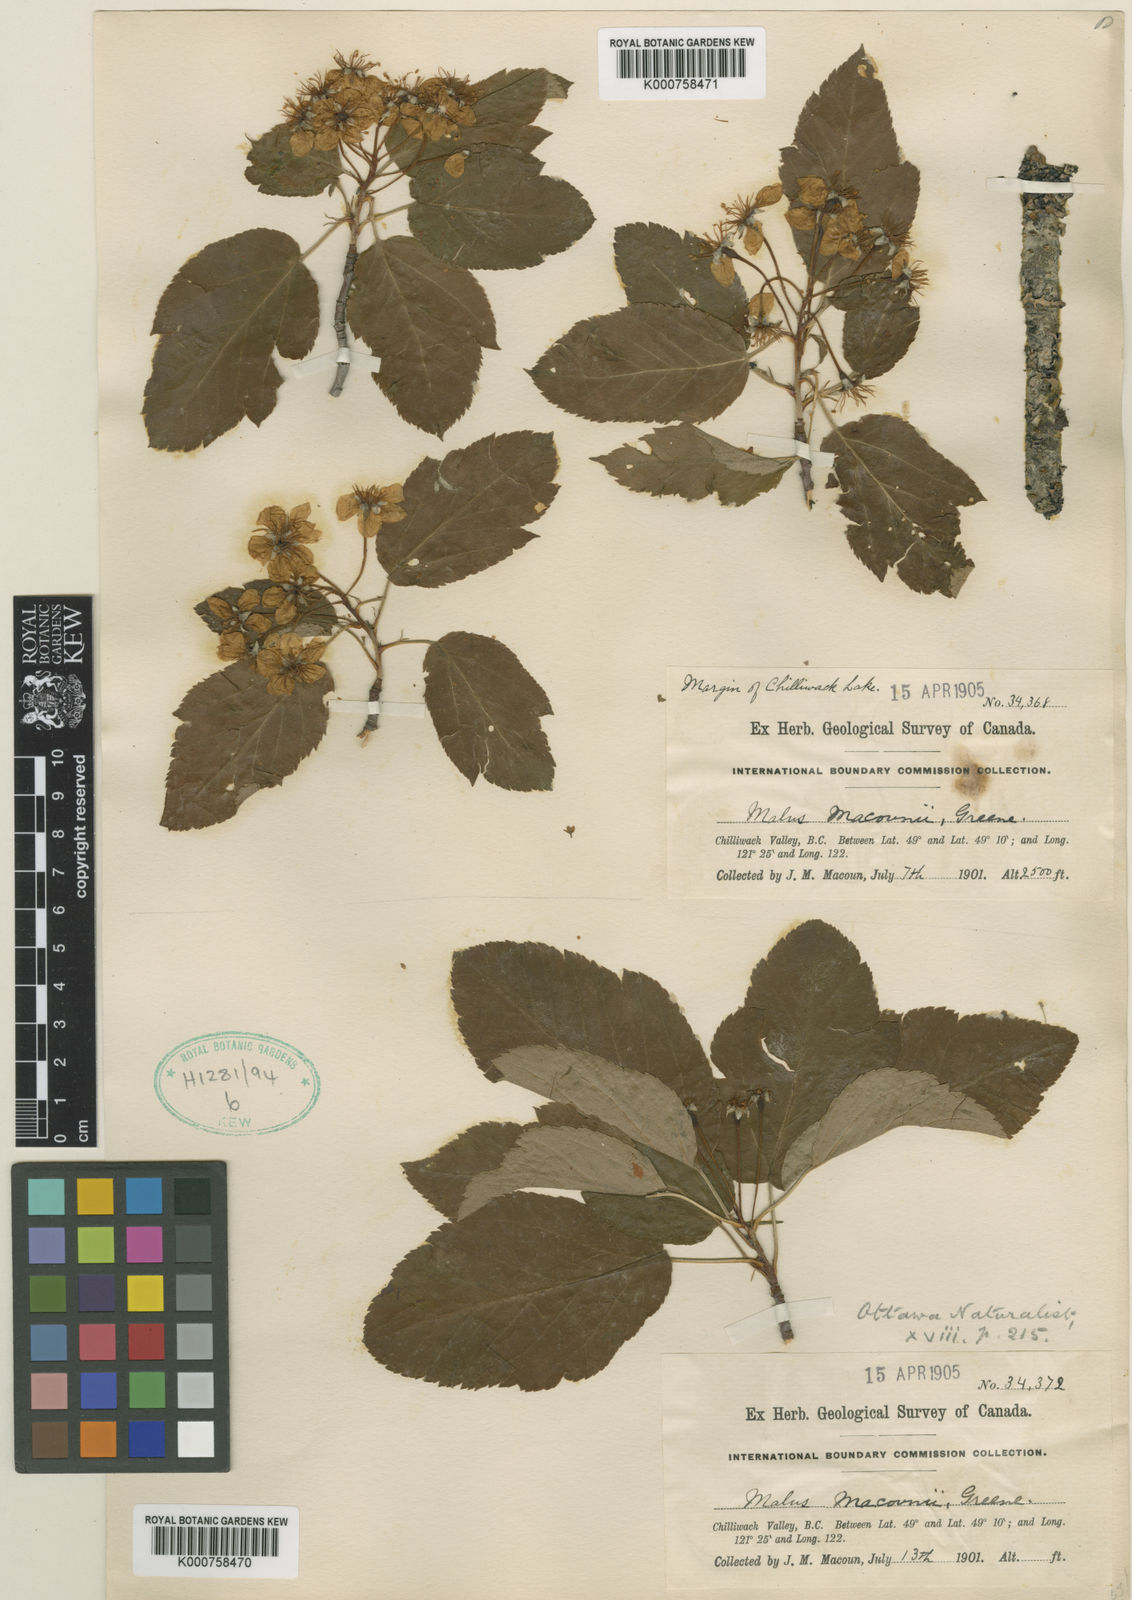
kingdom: Plantae
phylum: Tracheophyta
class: Magnoliopsida
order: Rosales
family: Rosaceae
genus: Malus
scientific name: Malus macounii
